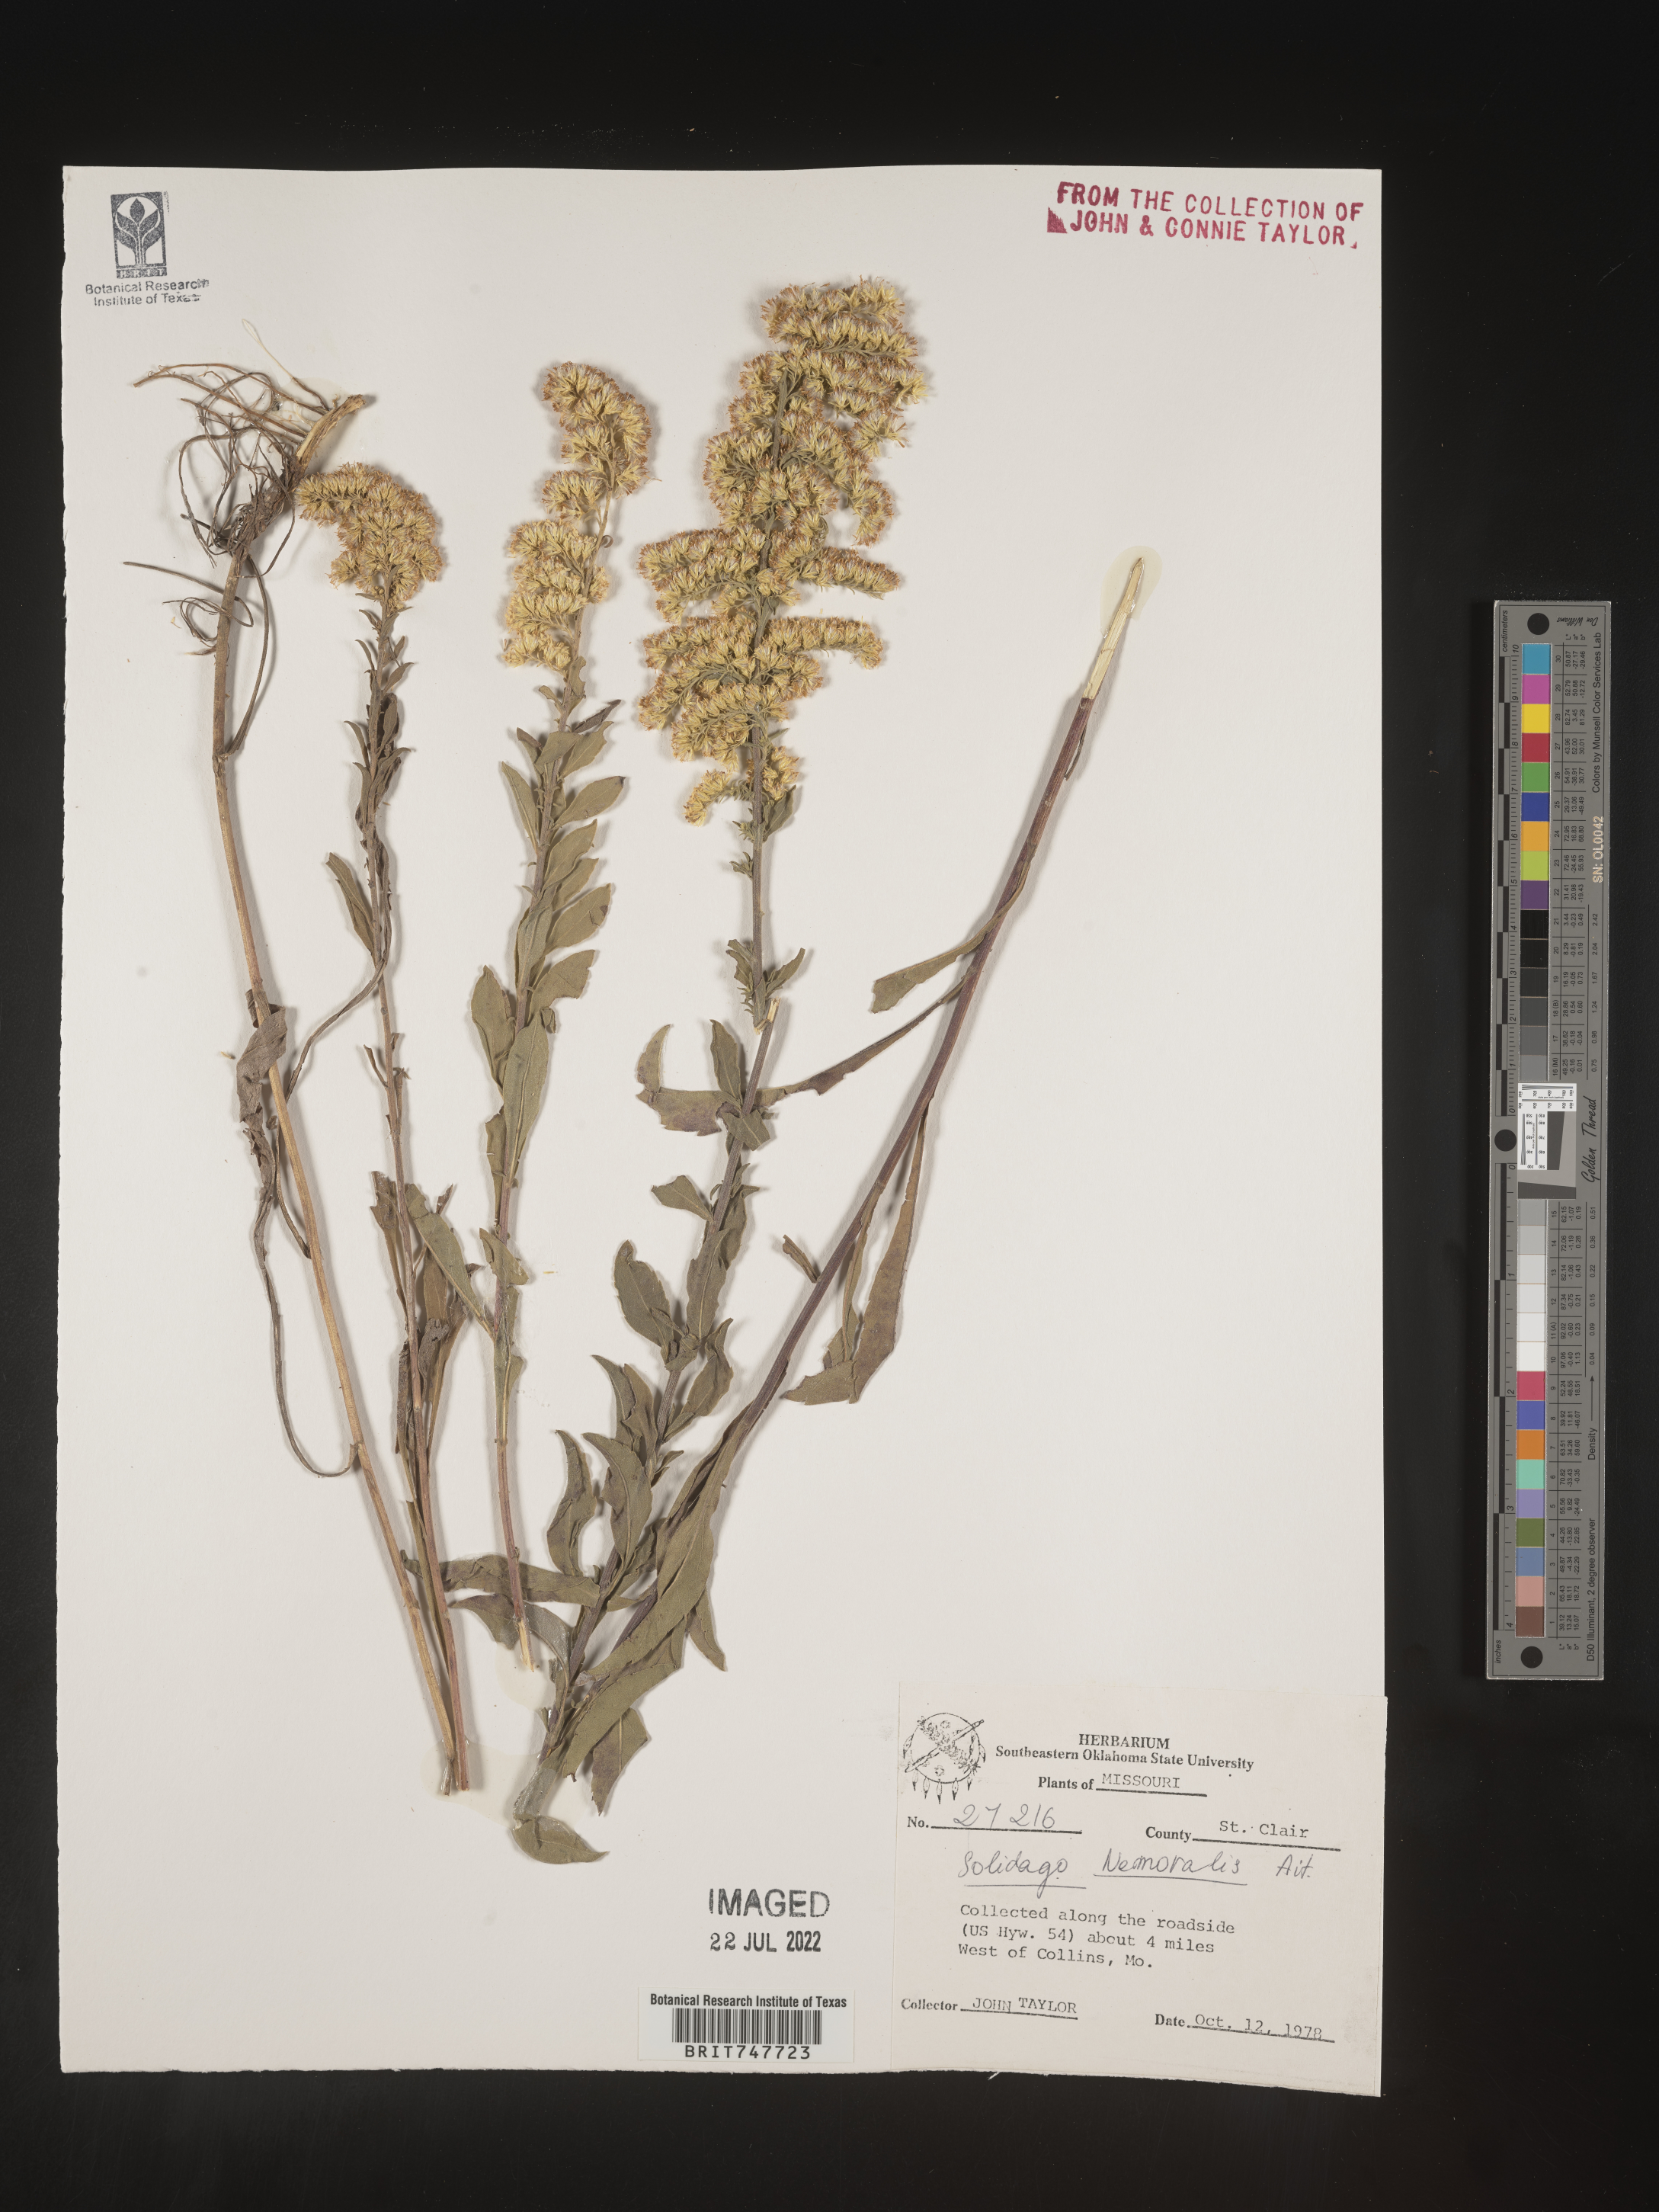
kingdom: Plantae
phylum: Tracheophyta
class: Magnoliopsida
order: Asterales
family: Asteraceae
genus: Solidago
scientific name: Solidago nemoralis
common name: Grey goldenrod
